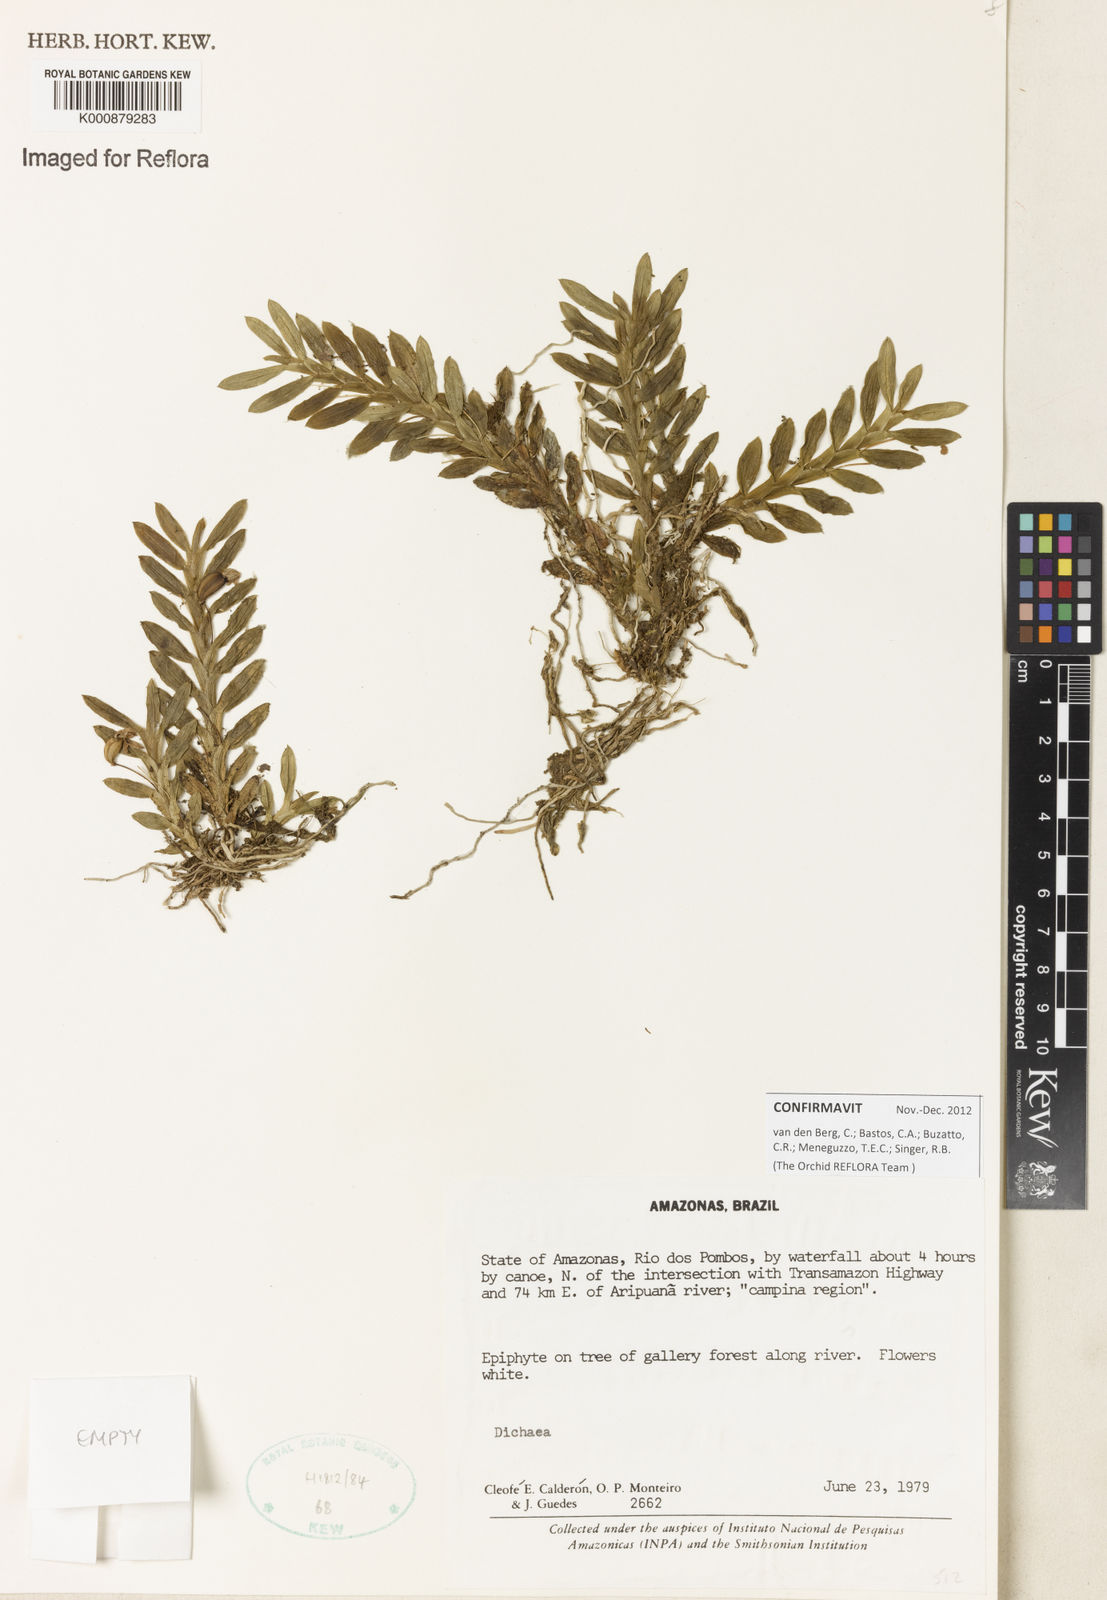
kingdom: Plantae
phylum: Tracheophyta
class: Liliopsida
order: Asparagales
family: Orchidaceae
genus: Dichaea
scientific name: Dichaea
